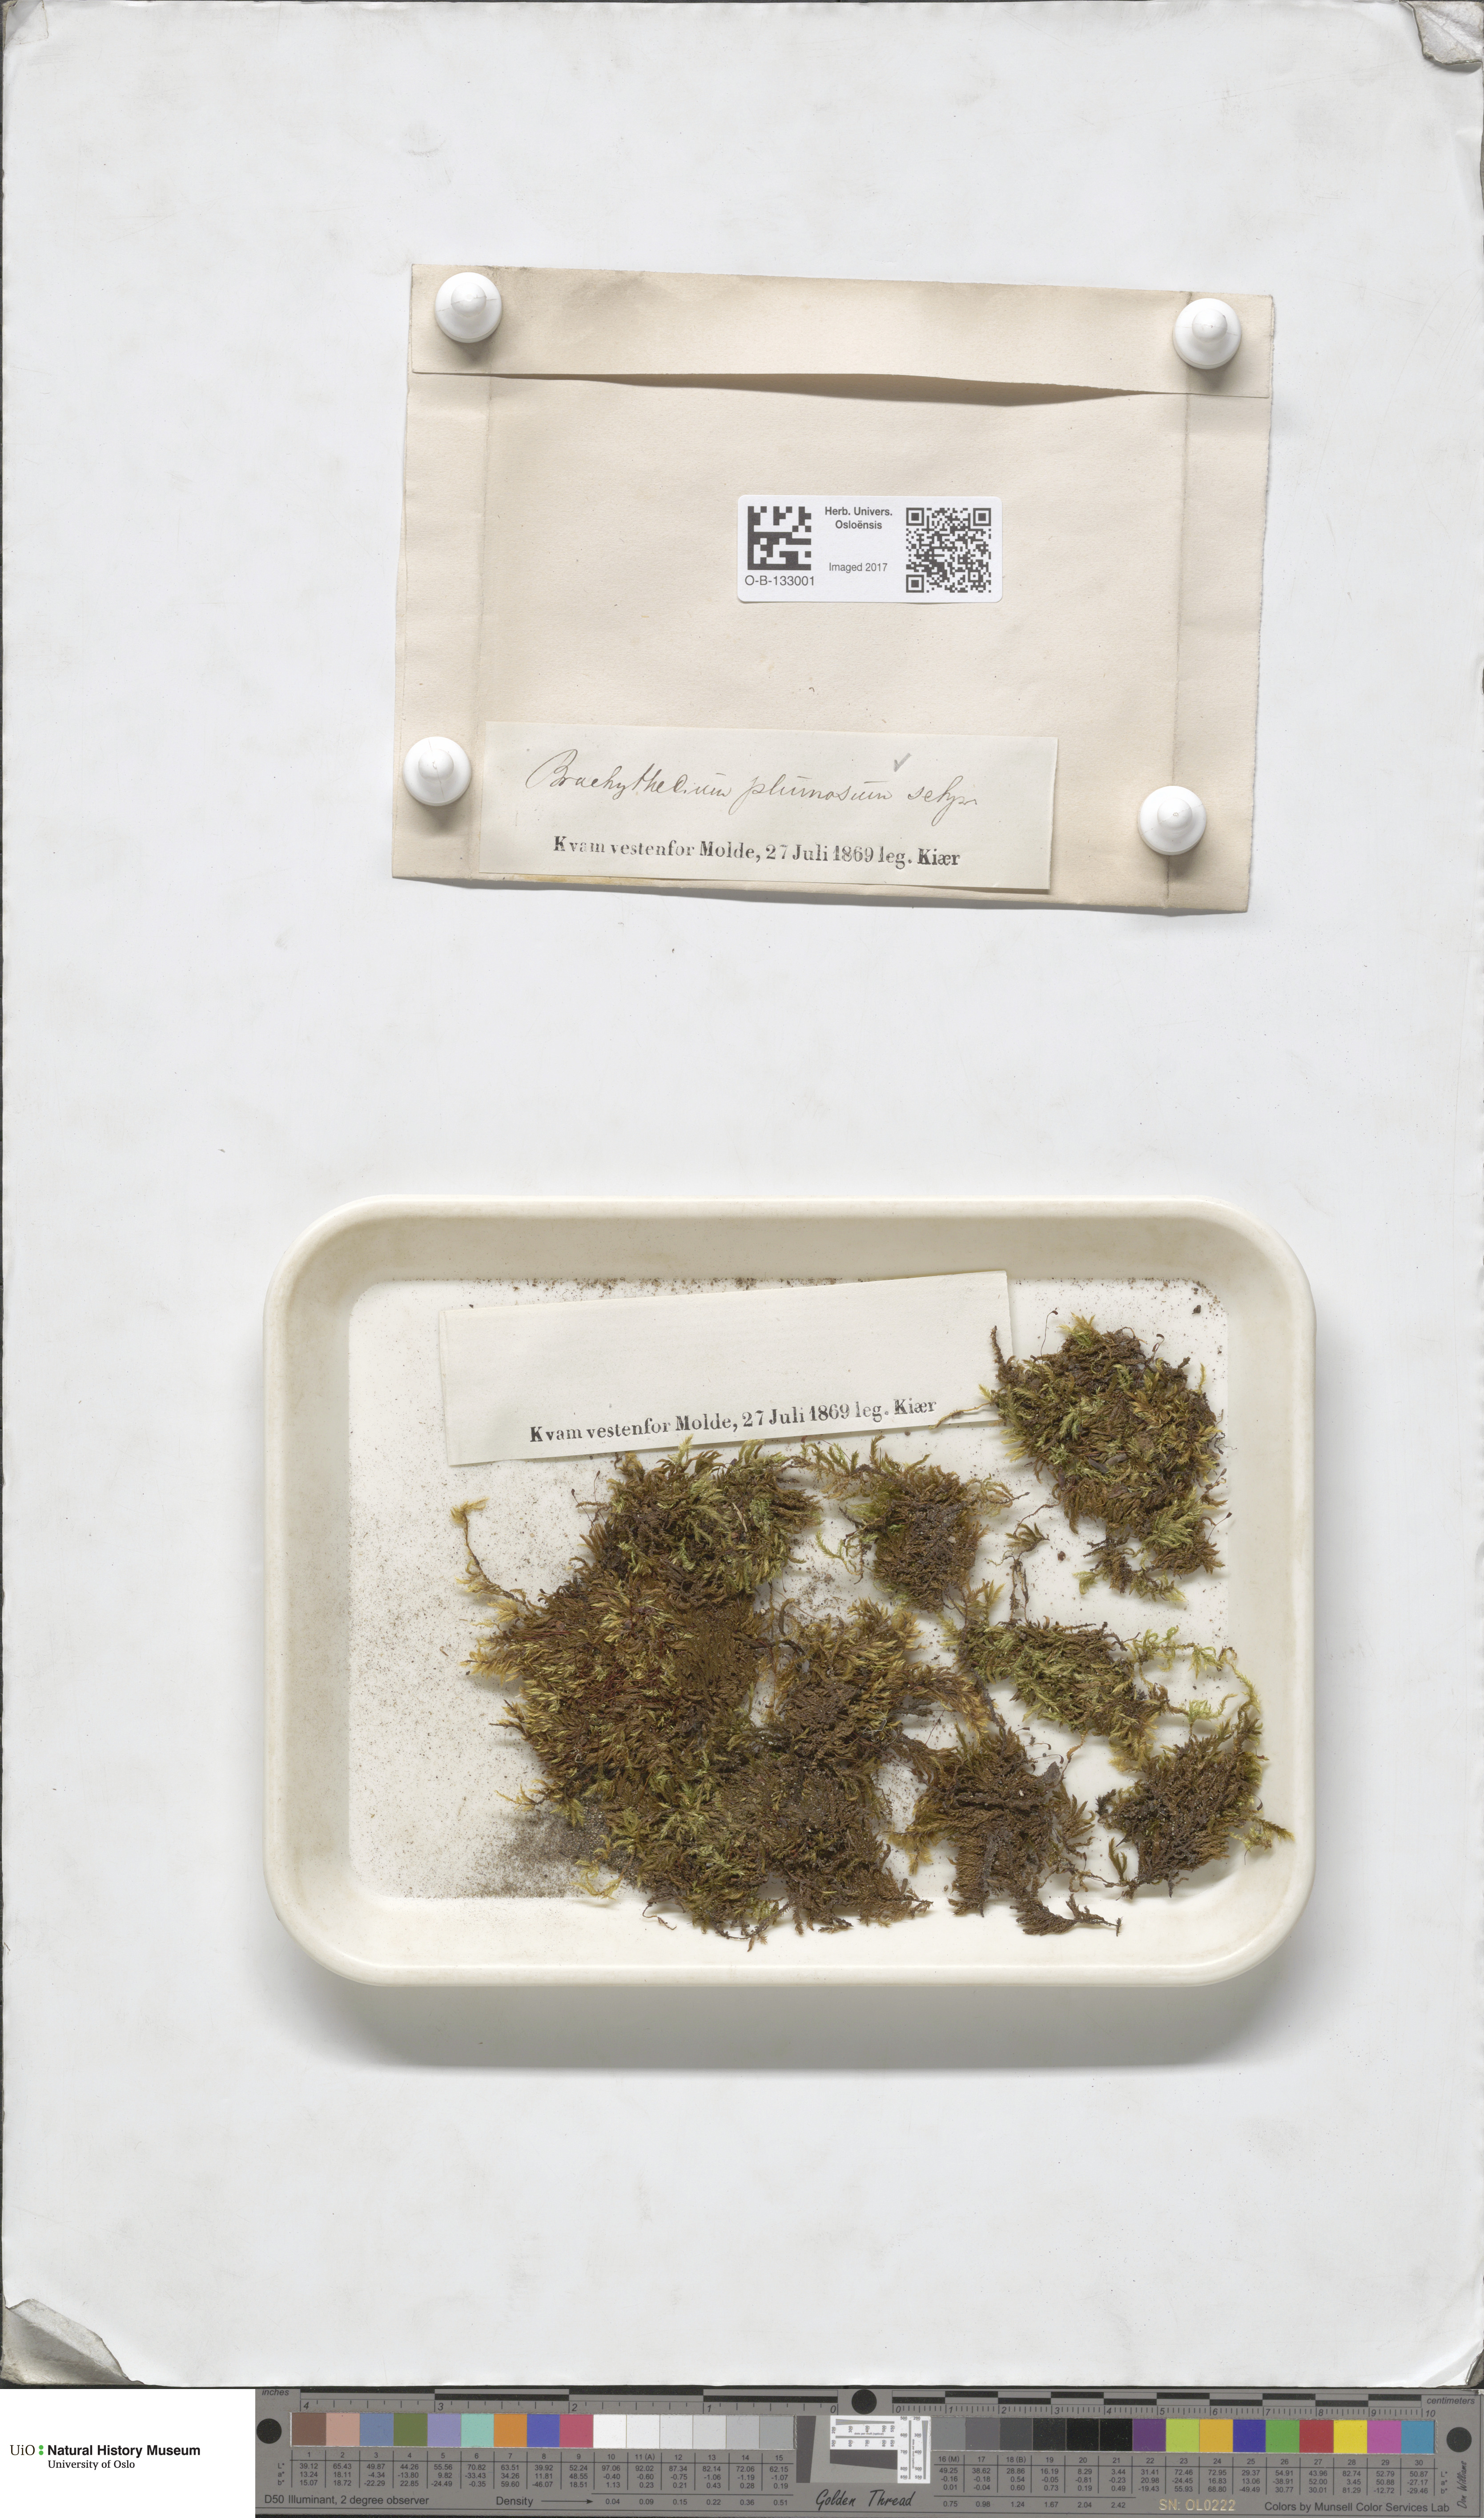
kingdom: Plantae
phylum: Bryophyta
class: Bryopsida
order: Hypnales
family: Brachytheciaceae
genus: Sciuro-hypnum
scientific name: Sciuro-hypnum plumosum
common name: Rusty feather-moss
